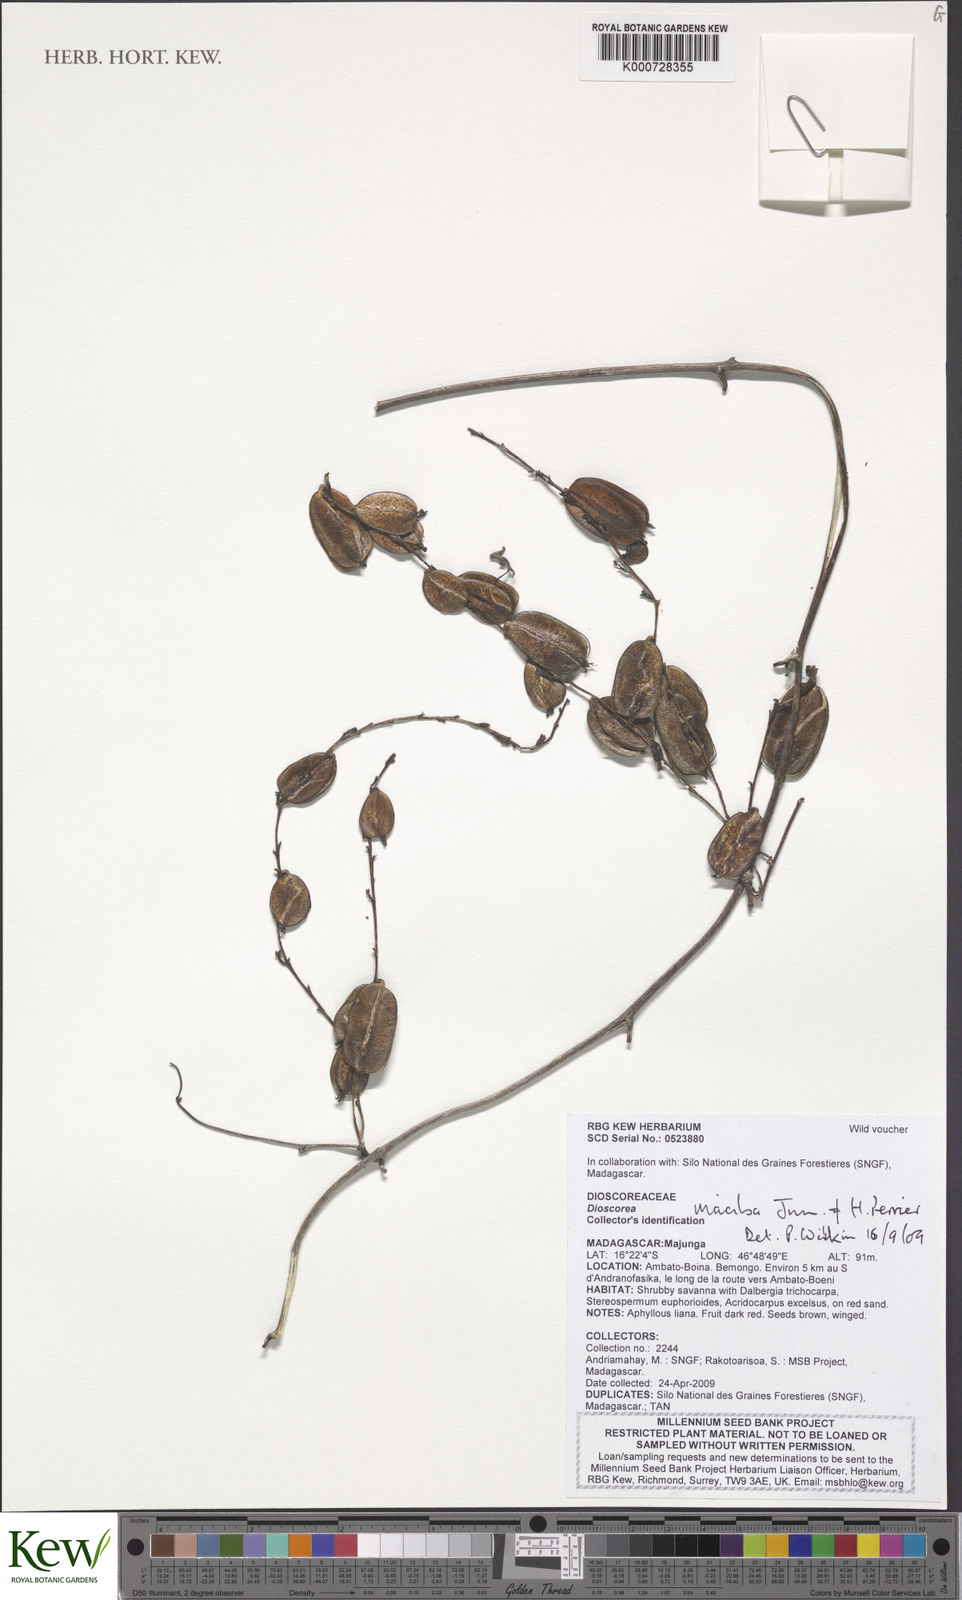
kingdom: Plantae
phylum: Tracheophyta
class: Liliopsida
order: Dioscoreales
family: Dioscoreaceae
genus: Dioscorea
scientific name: Dioscorea maciba
